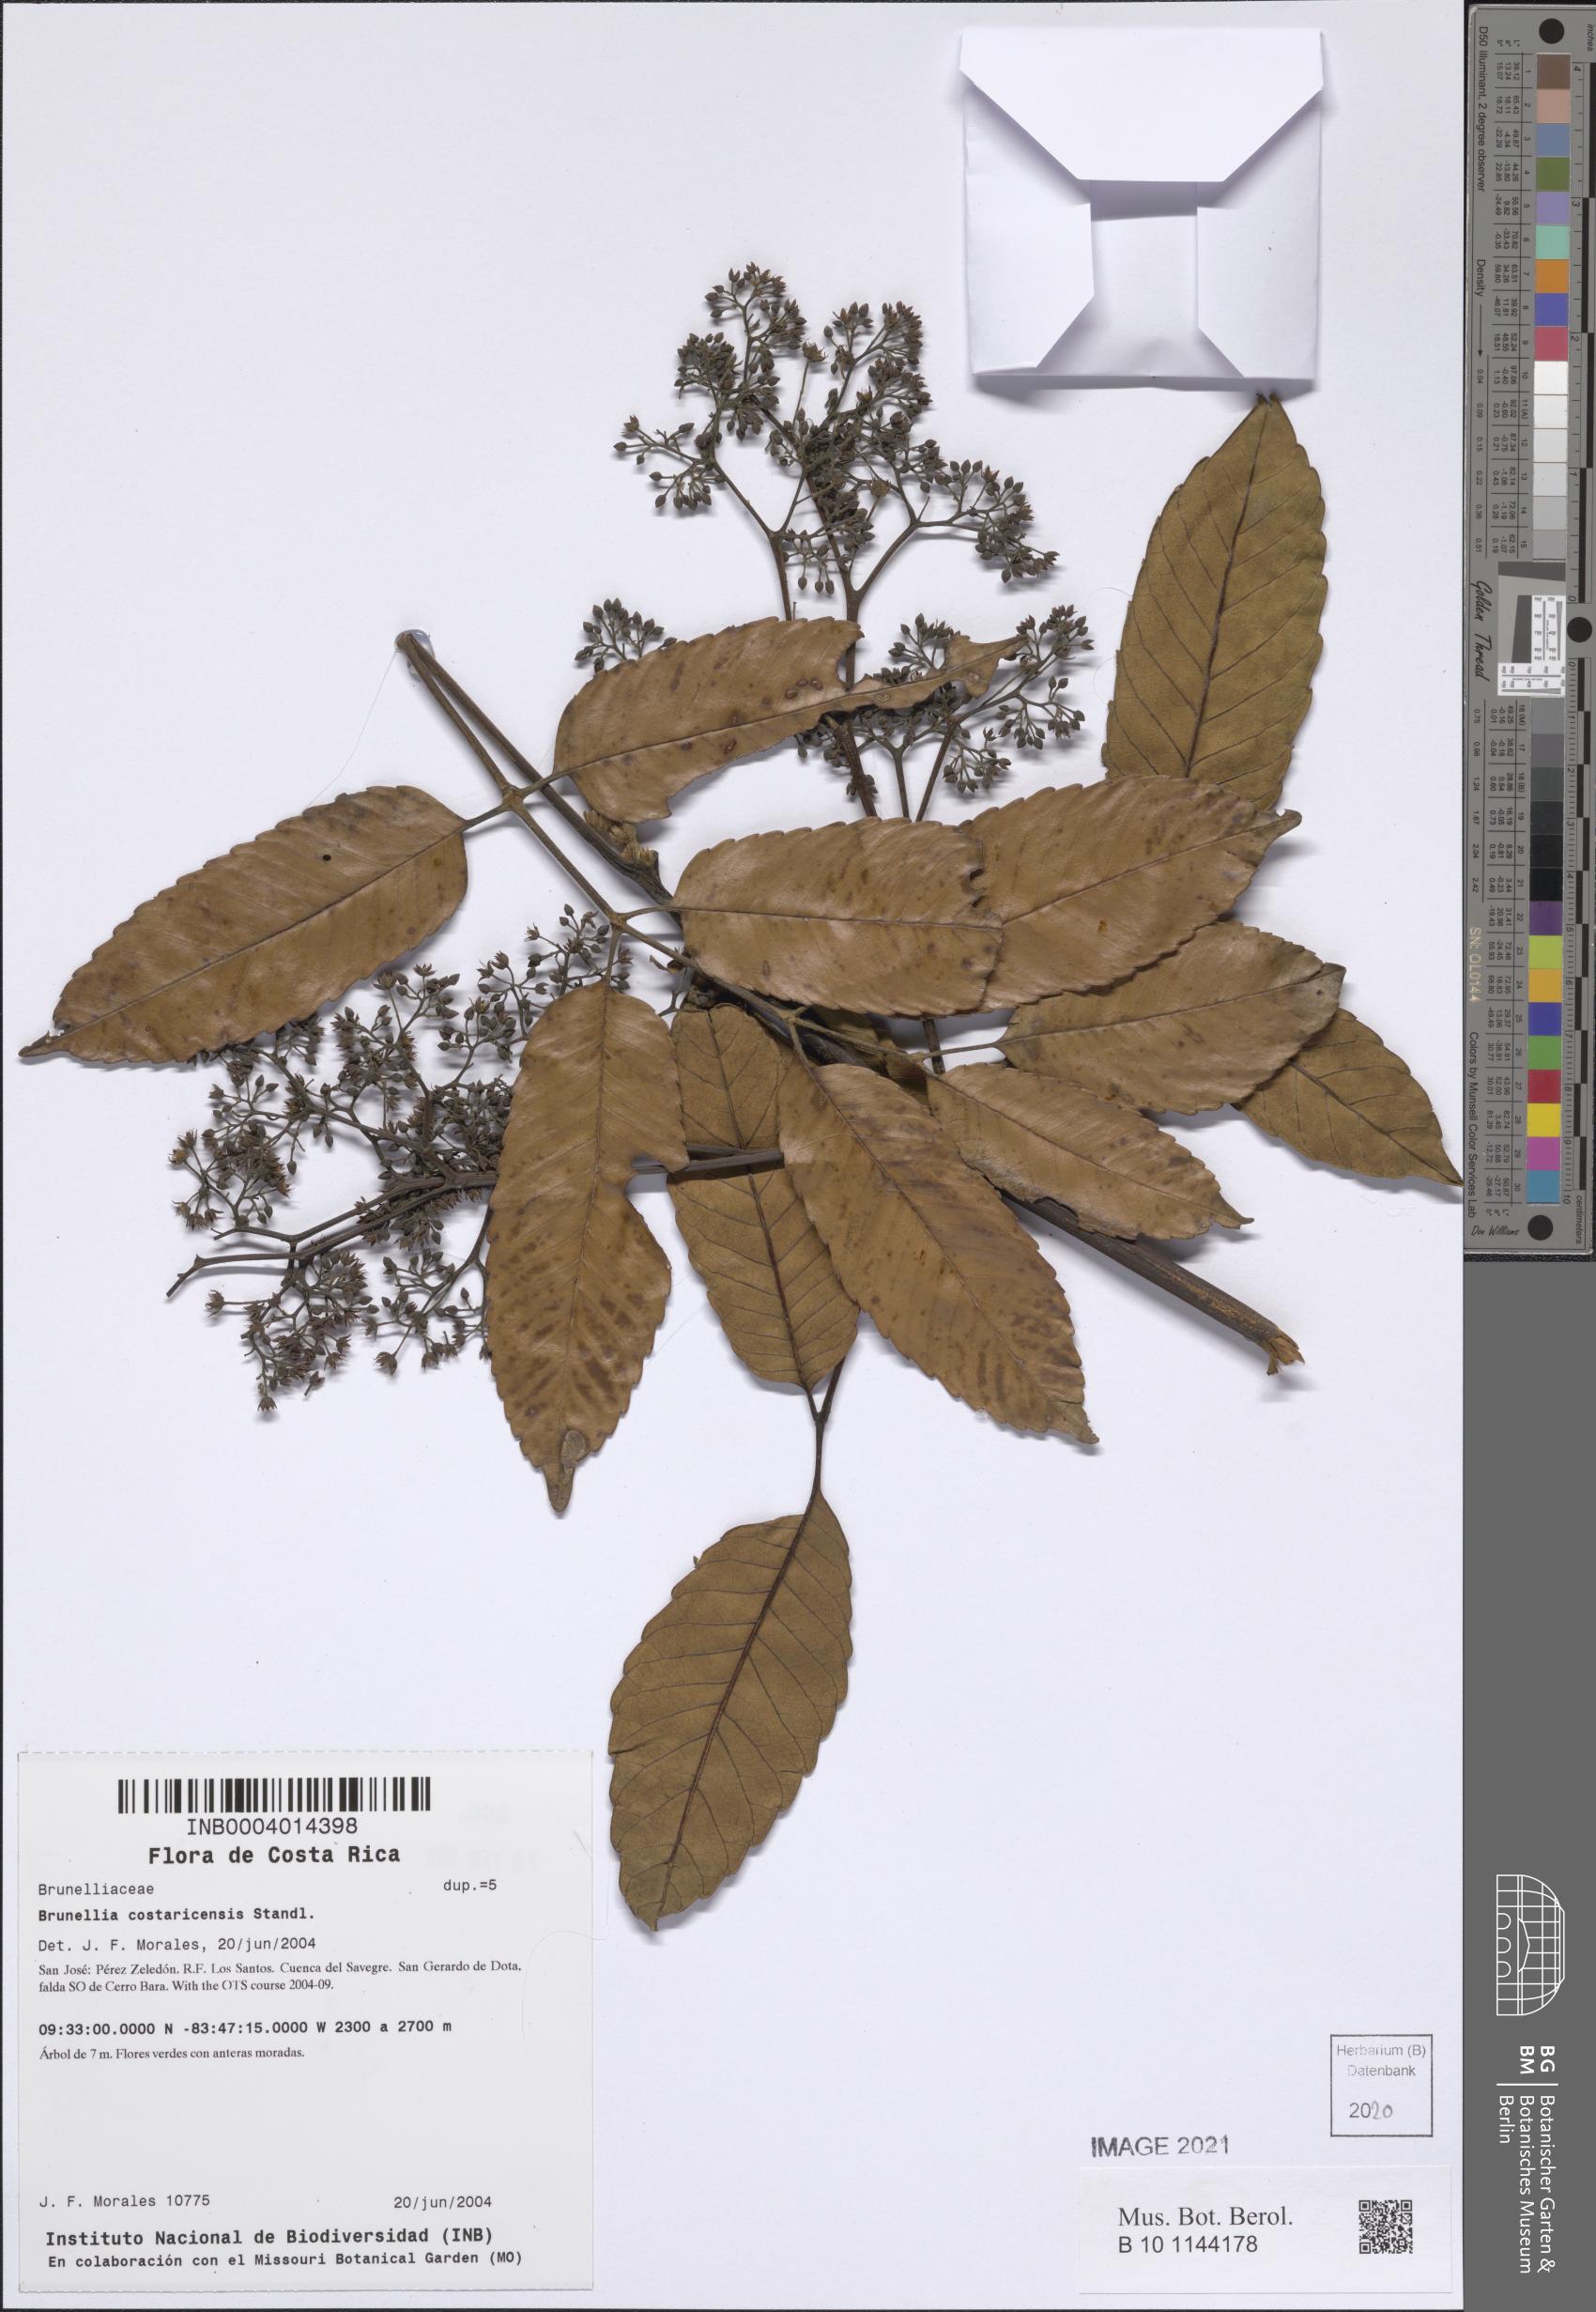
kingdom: Plantae
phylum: Tracheophyta
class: Magnoliopsida
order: Oxalidales
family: Brunelliaceae
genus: Brunellia
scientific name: Brunellia costaricensis
